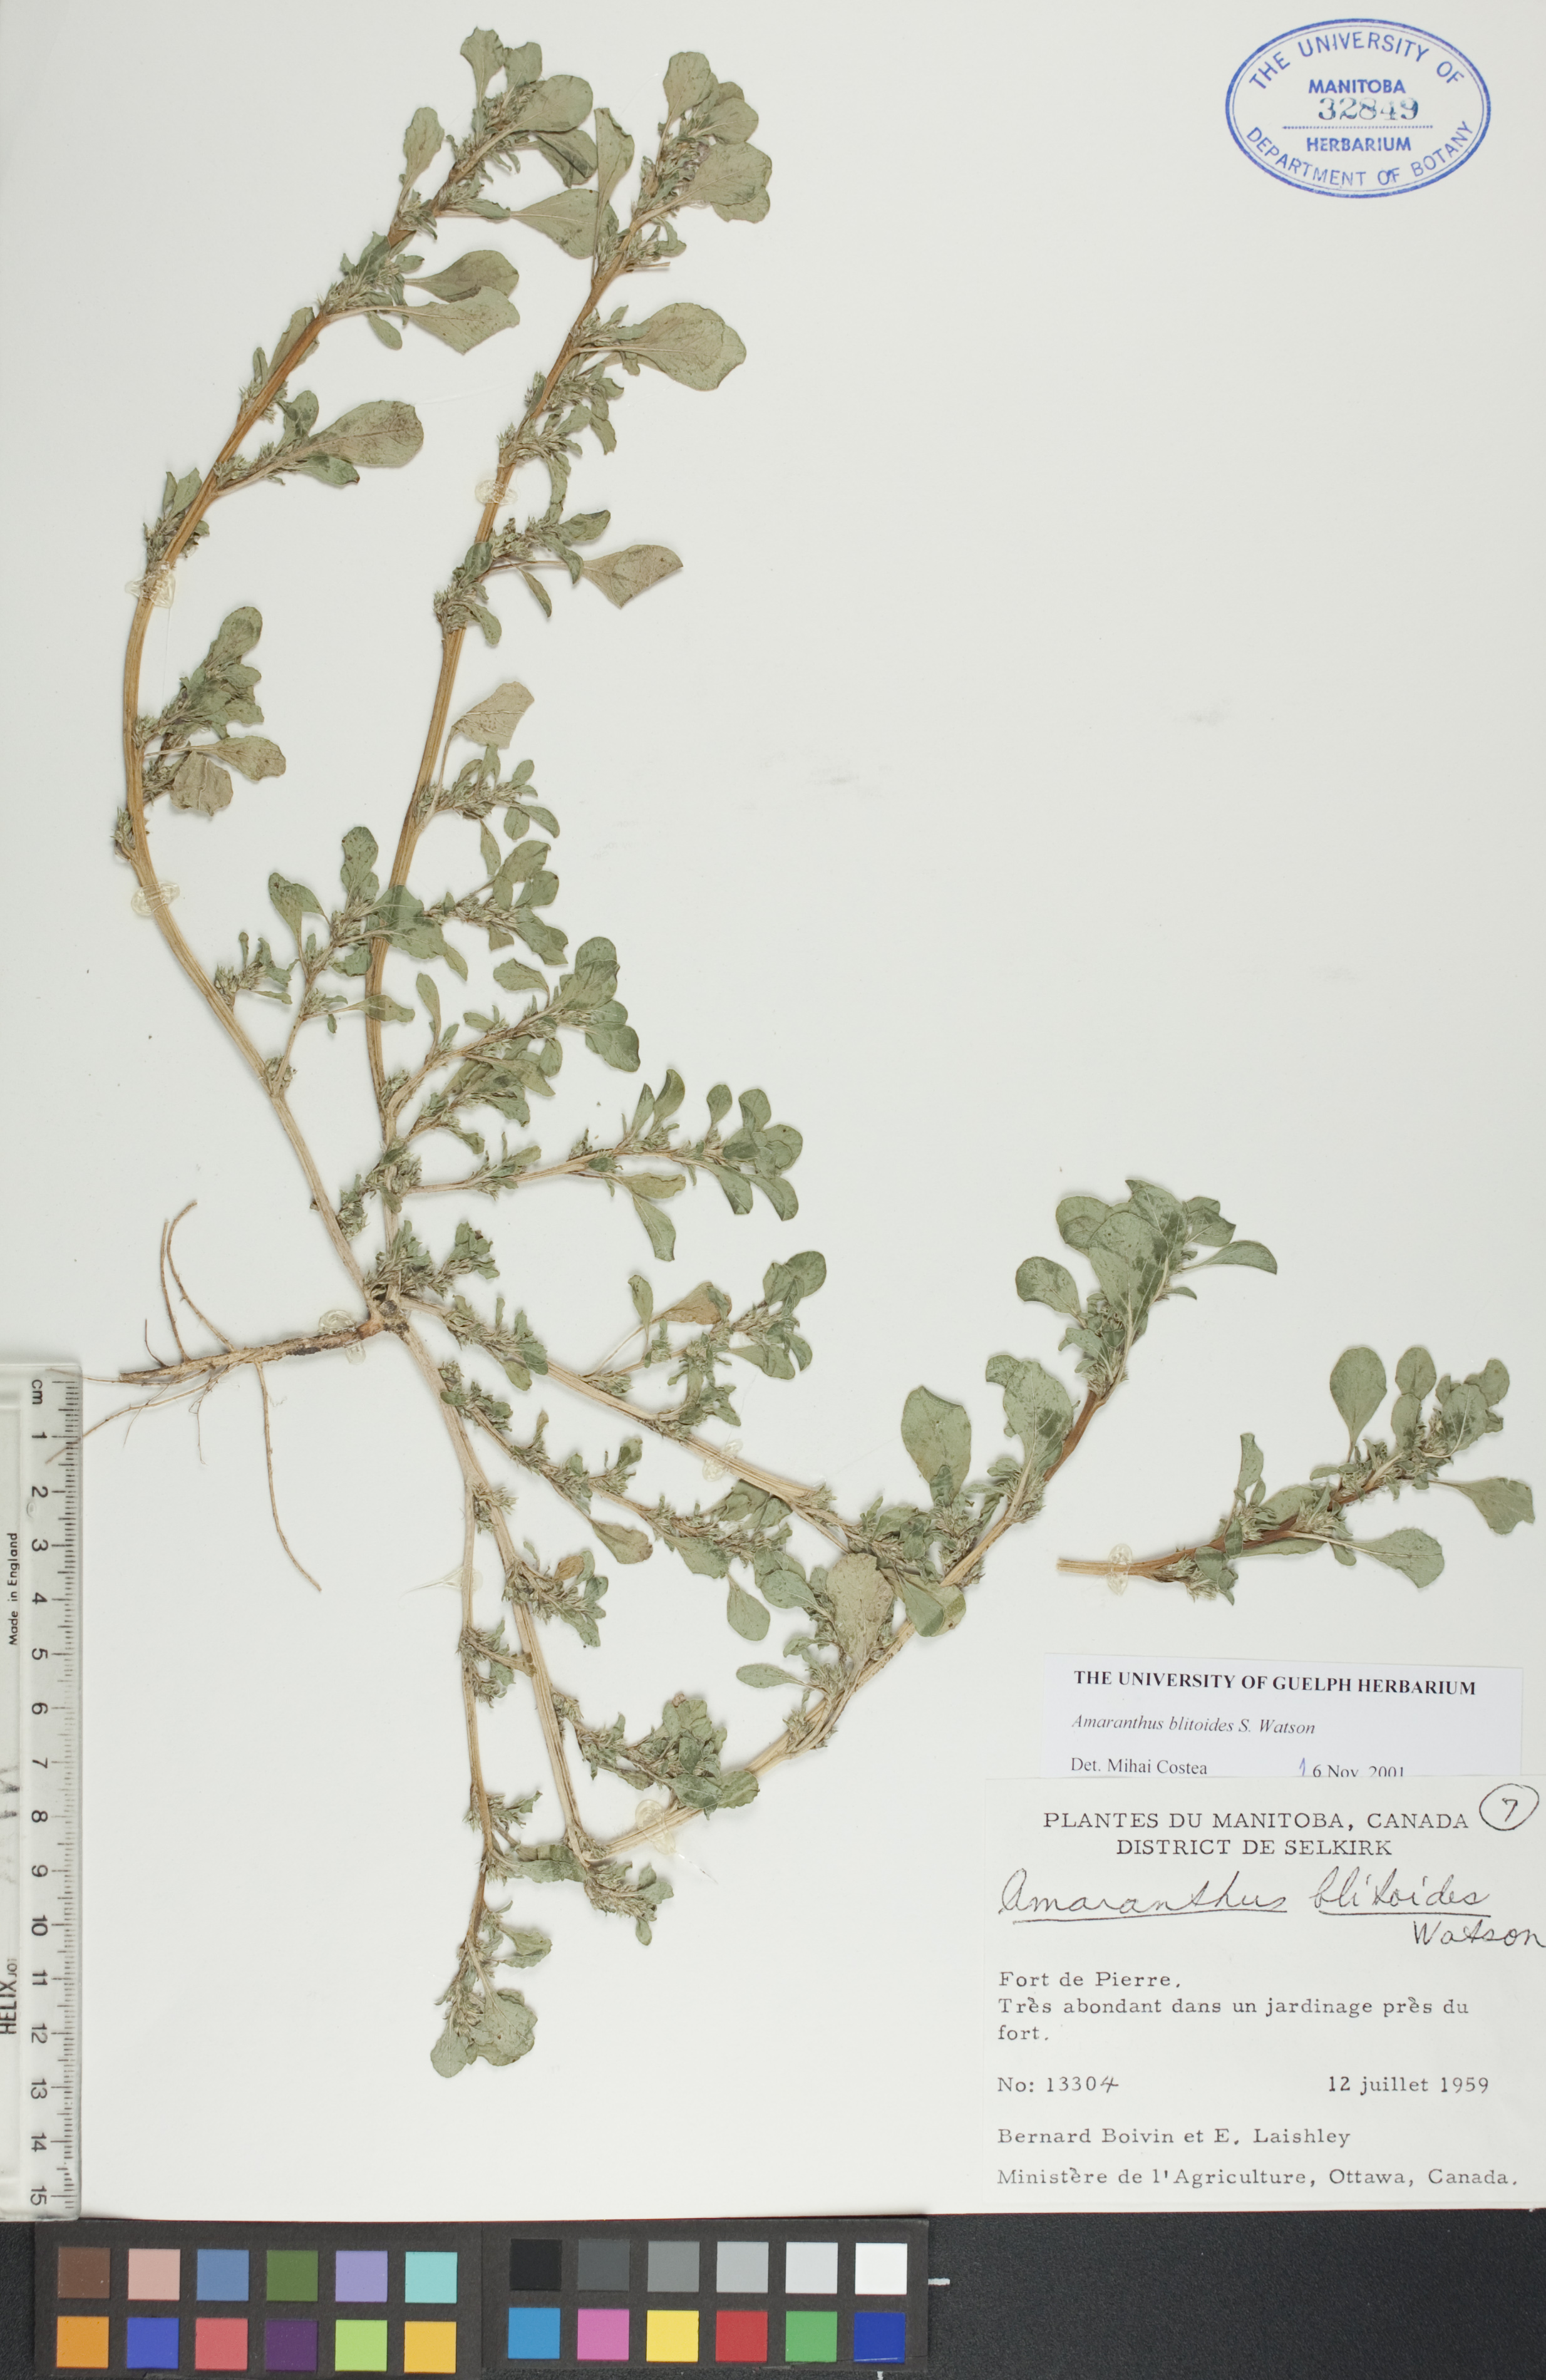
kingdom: Plantae
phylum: Tracheophyta
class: Magnoliopsida
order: Caryophyllales
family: Amaranthaceae
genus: Amaranthus
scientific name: Amaranthus blitoides
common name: Prostrate pigweed
